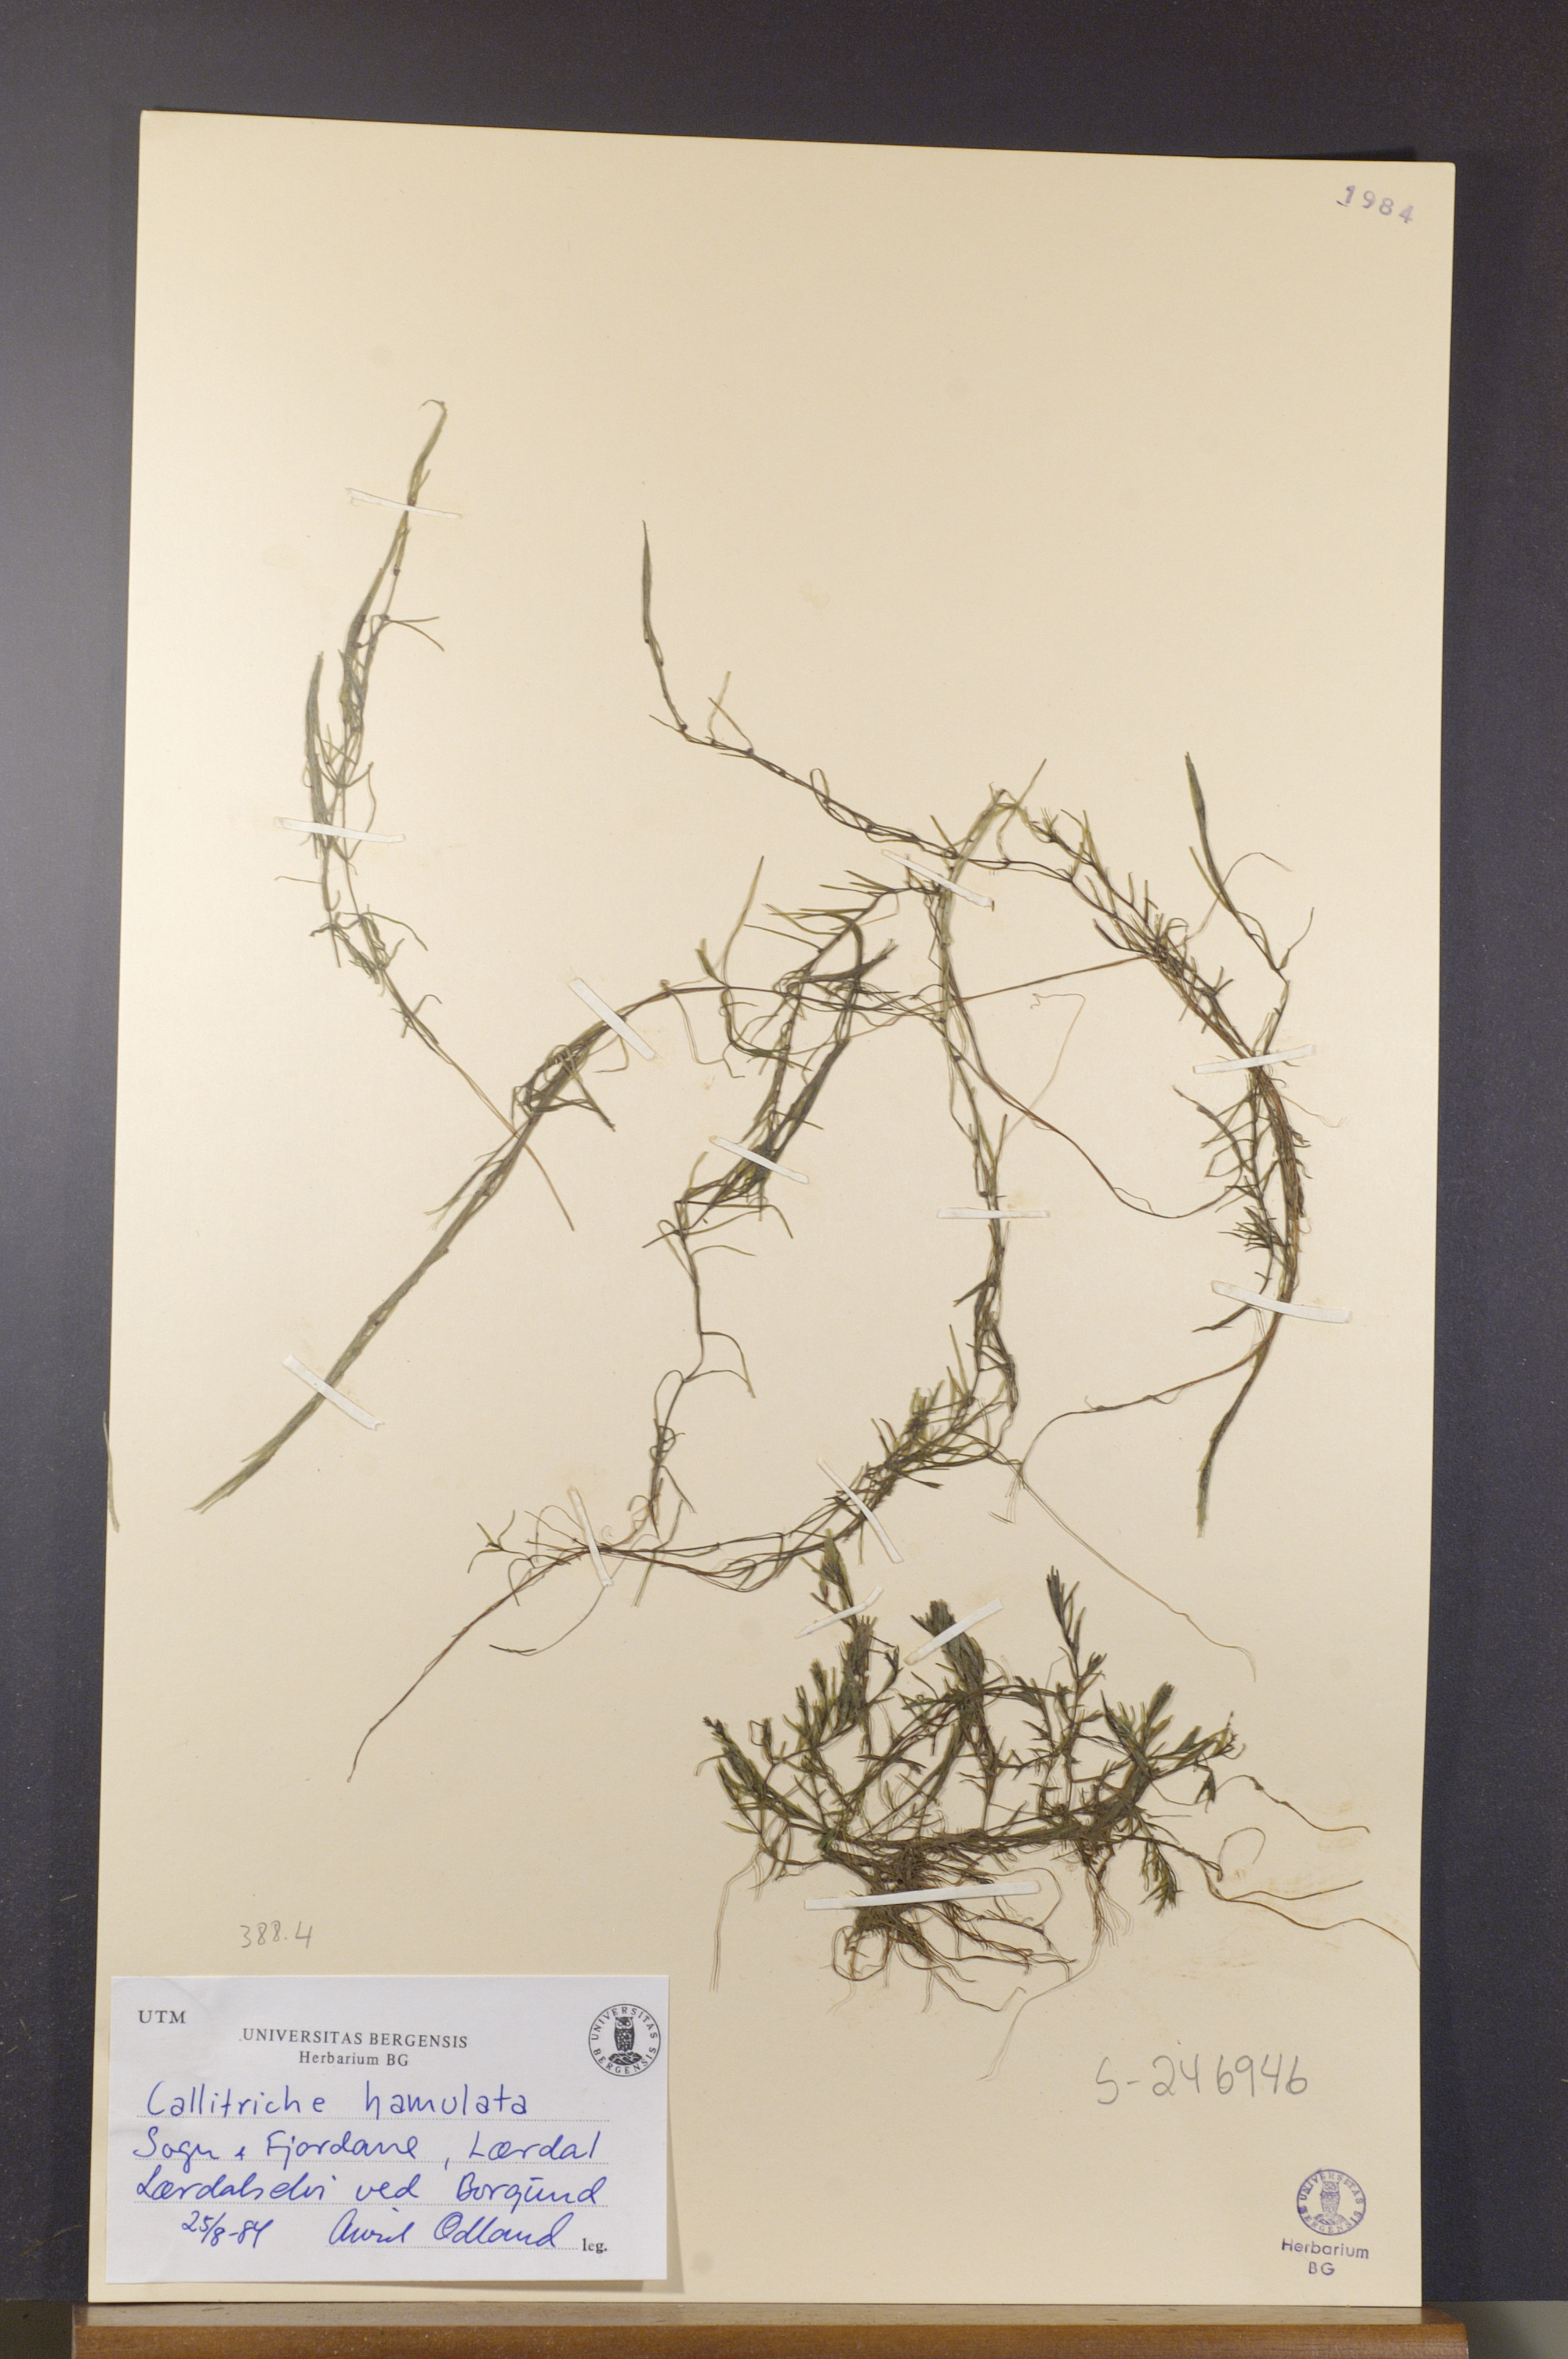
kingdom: Plantae
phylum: Tracheophyta
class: Magnoliopsida
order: Lamiales
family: Plantaginaceae
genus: Callitriche
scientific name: Callitriche hamulata
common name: Intermediate water-starwort
